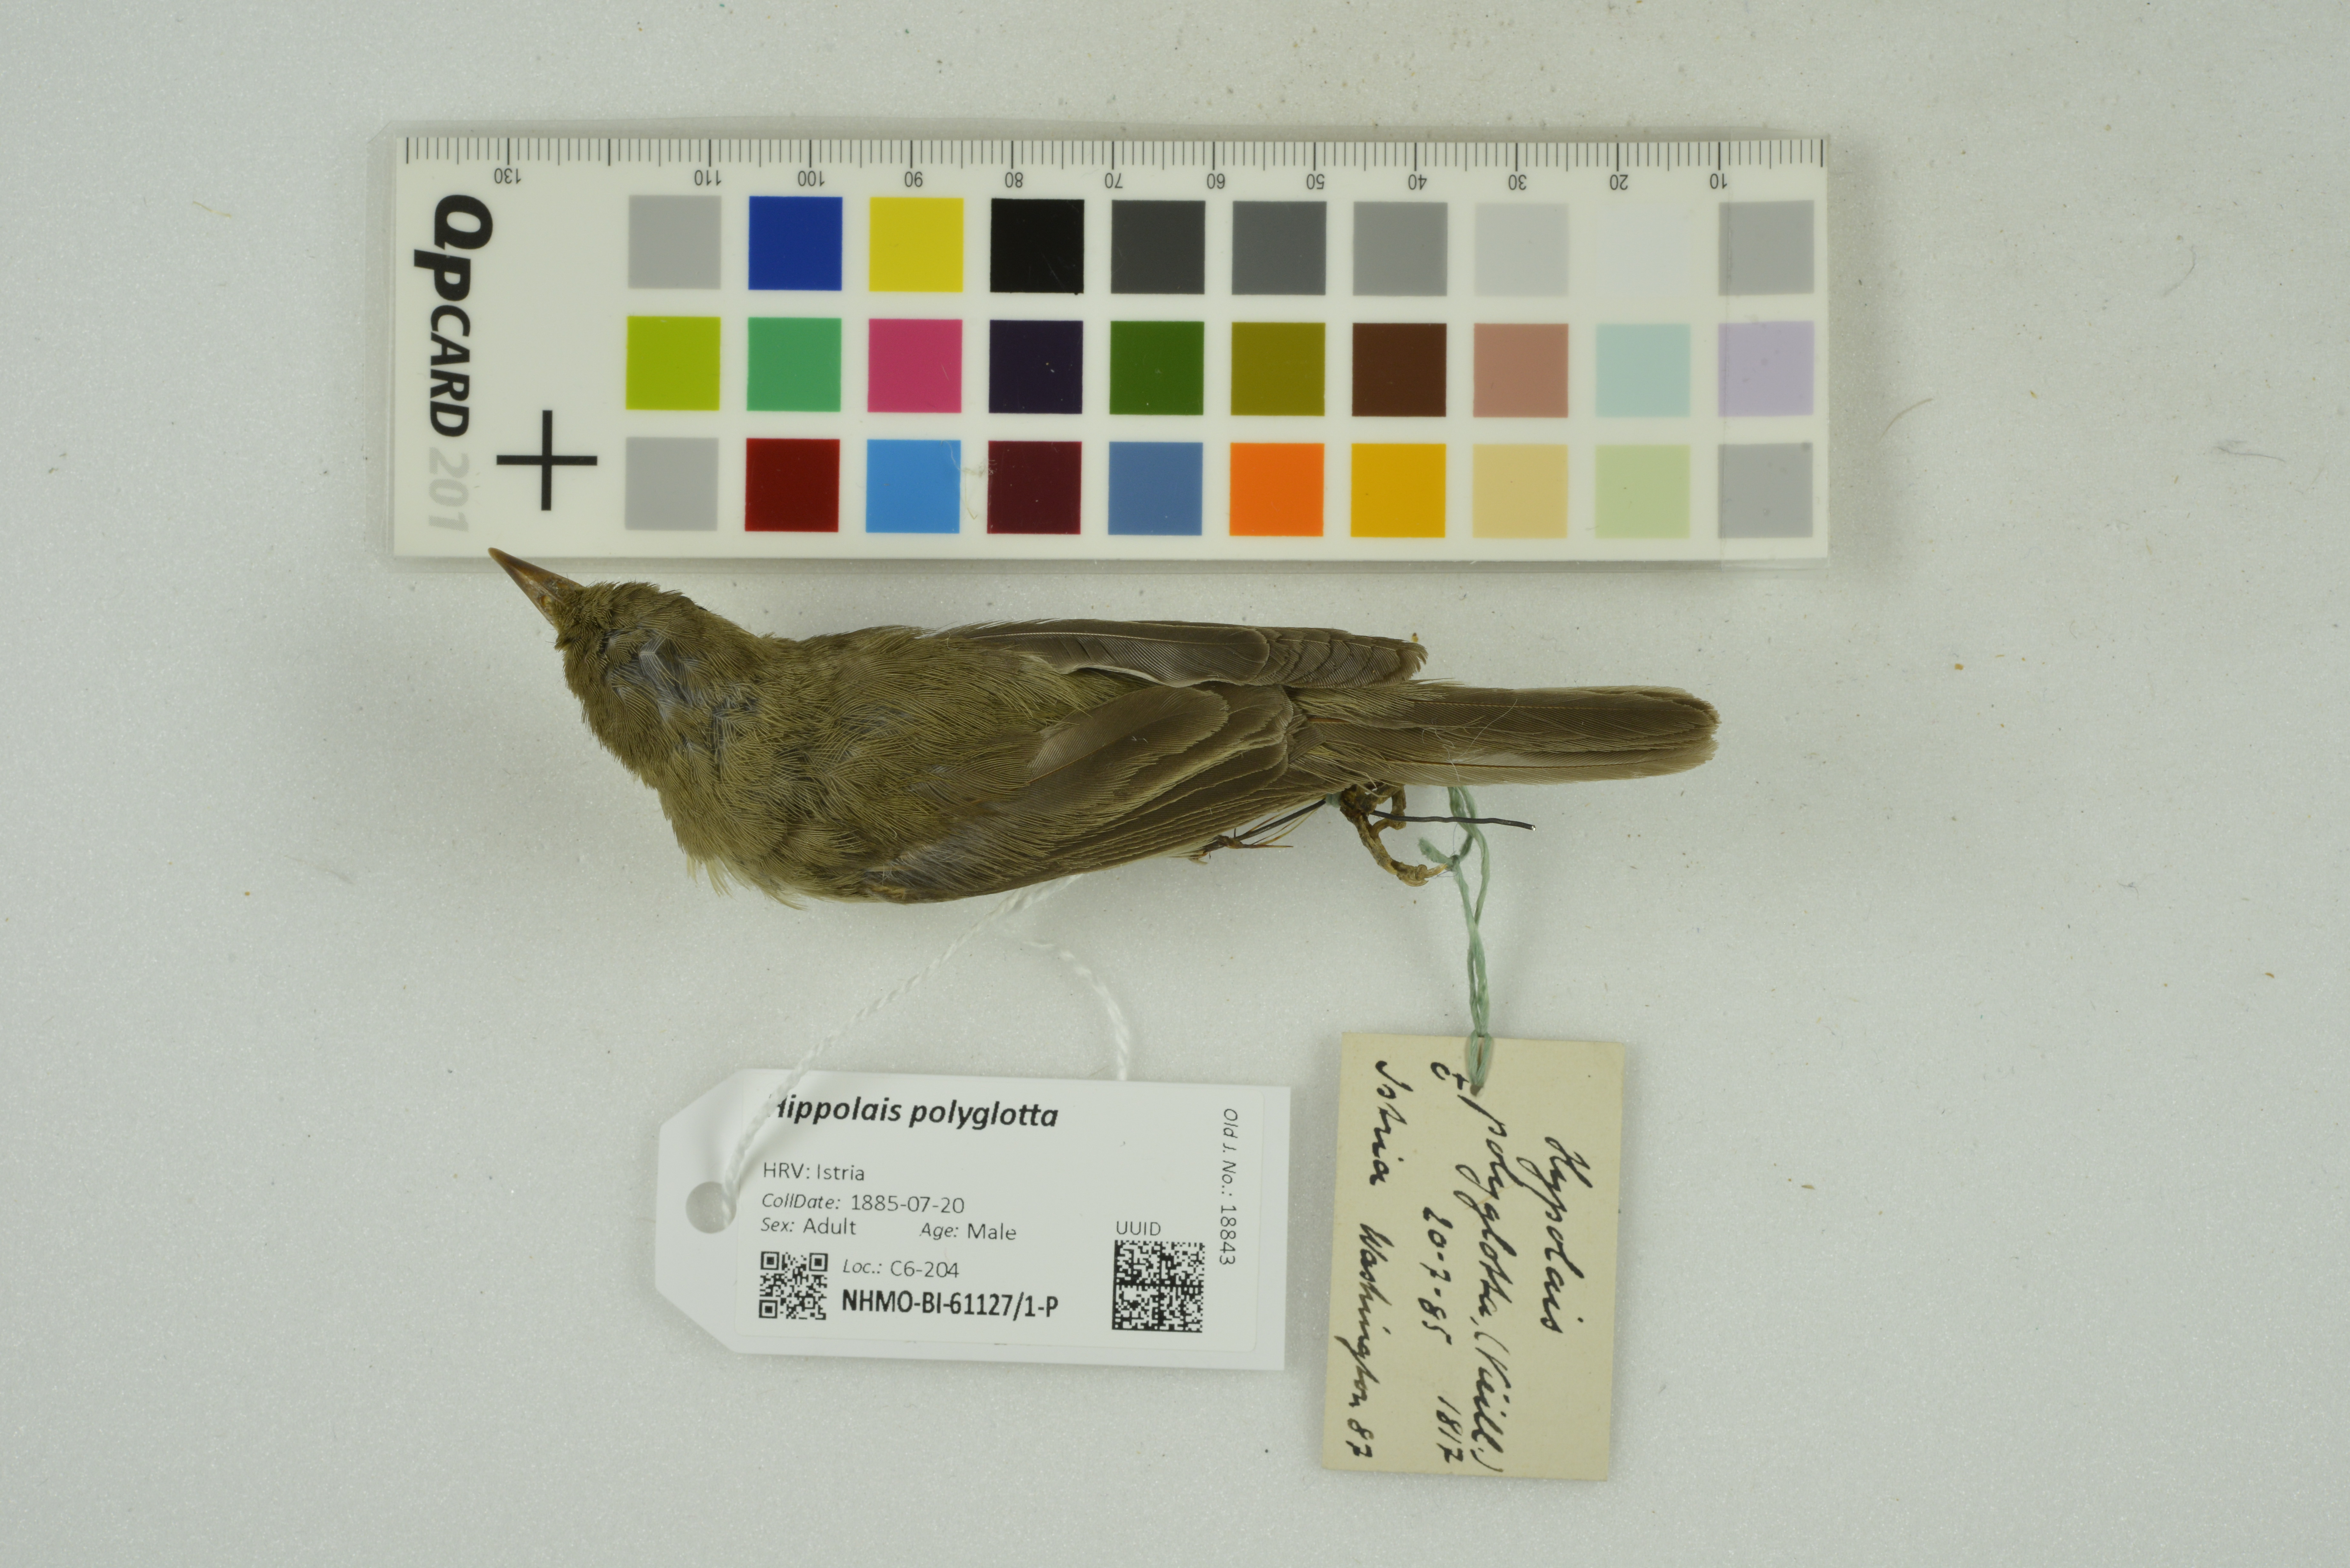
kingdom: Animalia
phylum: Chordata
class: Aves
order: Passeriformes
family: Acrocephalidae
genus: Hippolais
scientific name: Hippolais polyglotta
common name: Melodious warbler
